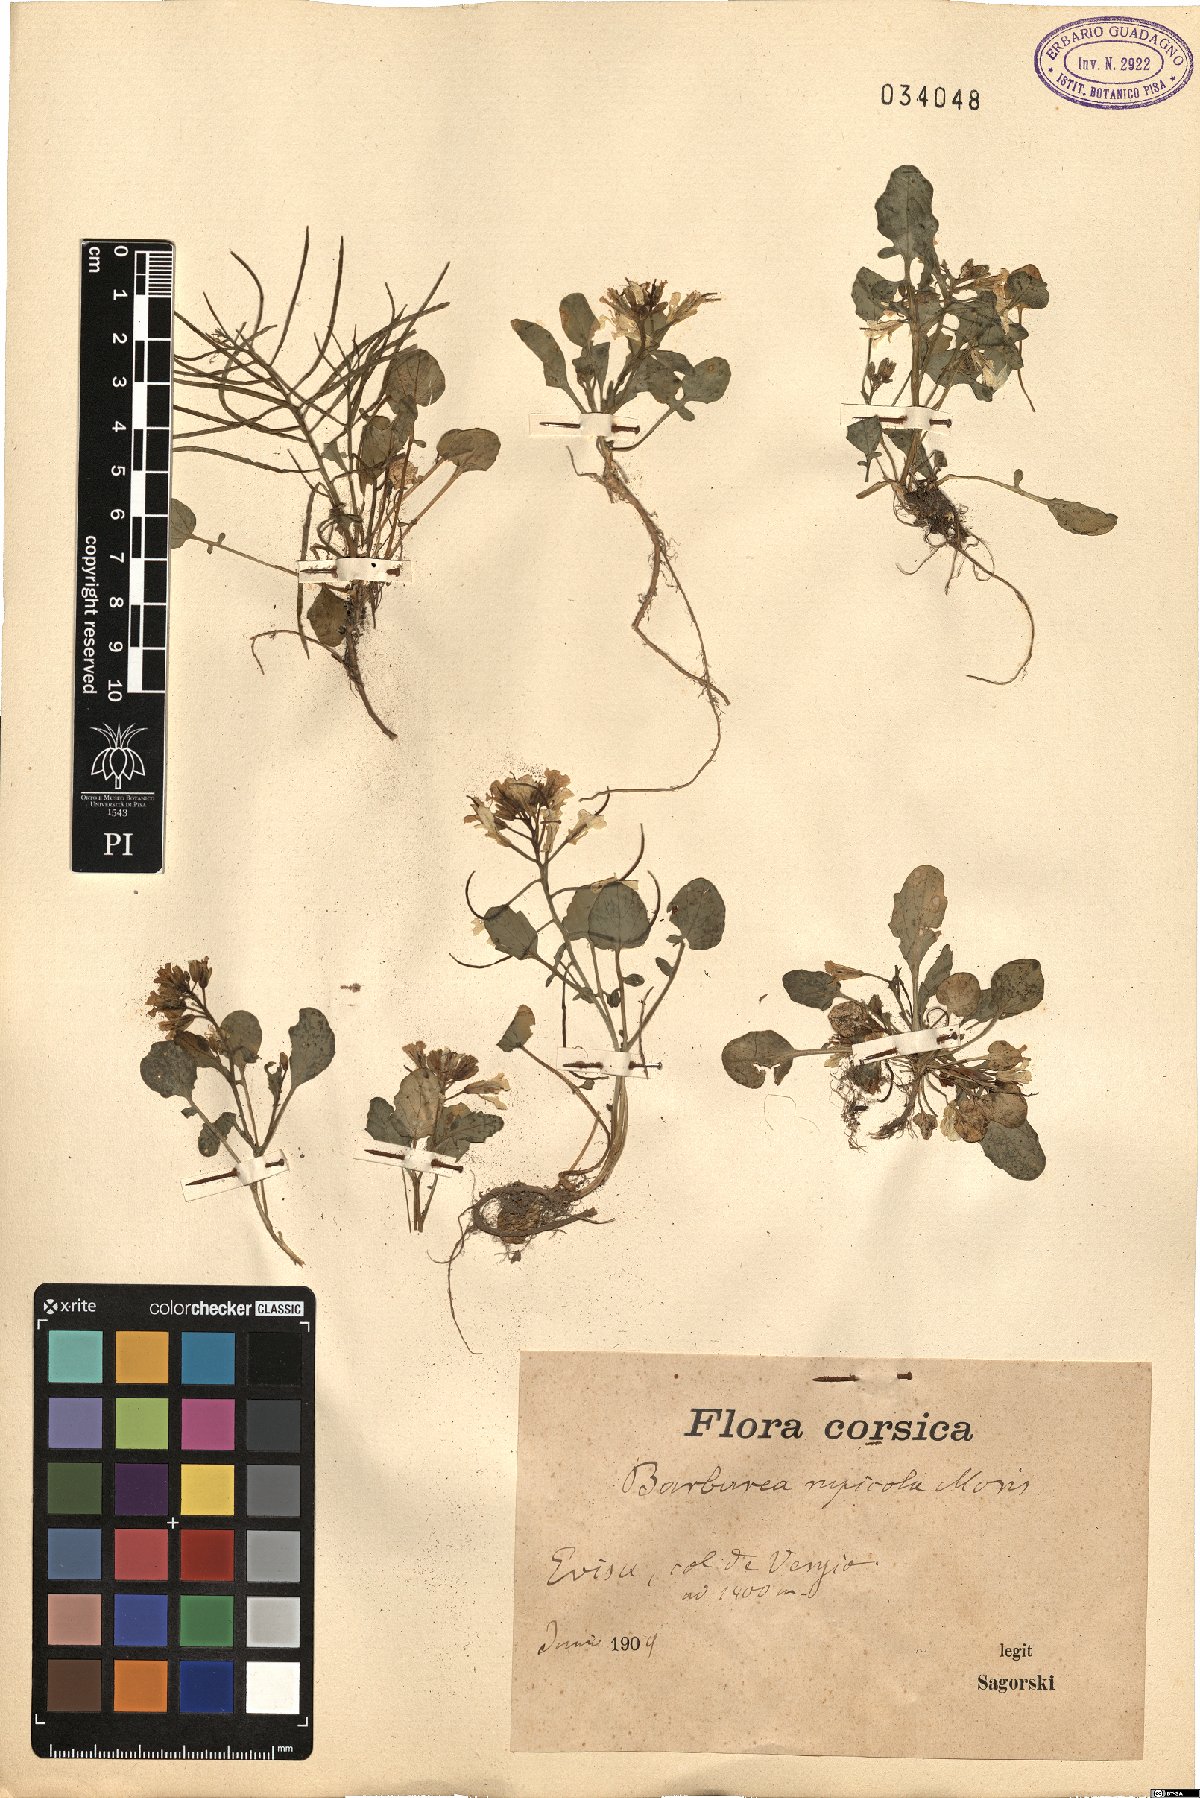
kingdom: Plantae
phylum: Tracheophyta
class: Magnoliopsida
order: Brassicales
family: Brassicaceae
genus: Barbarea
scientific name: Barbarea rupicola
